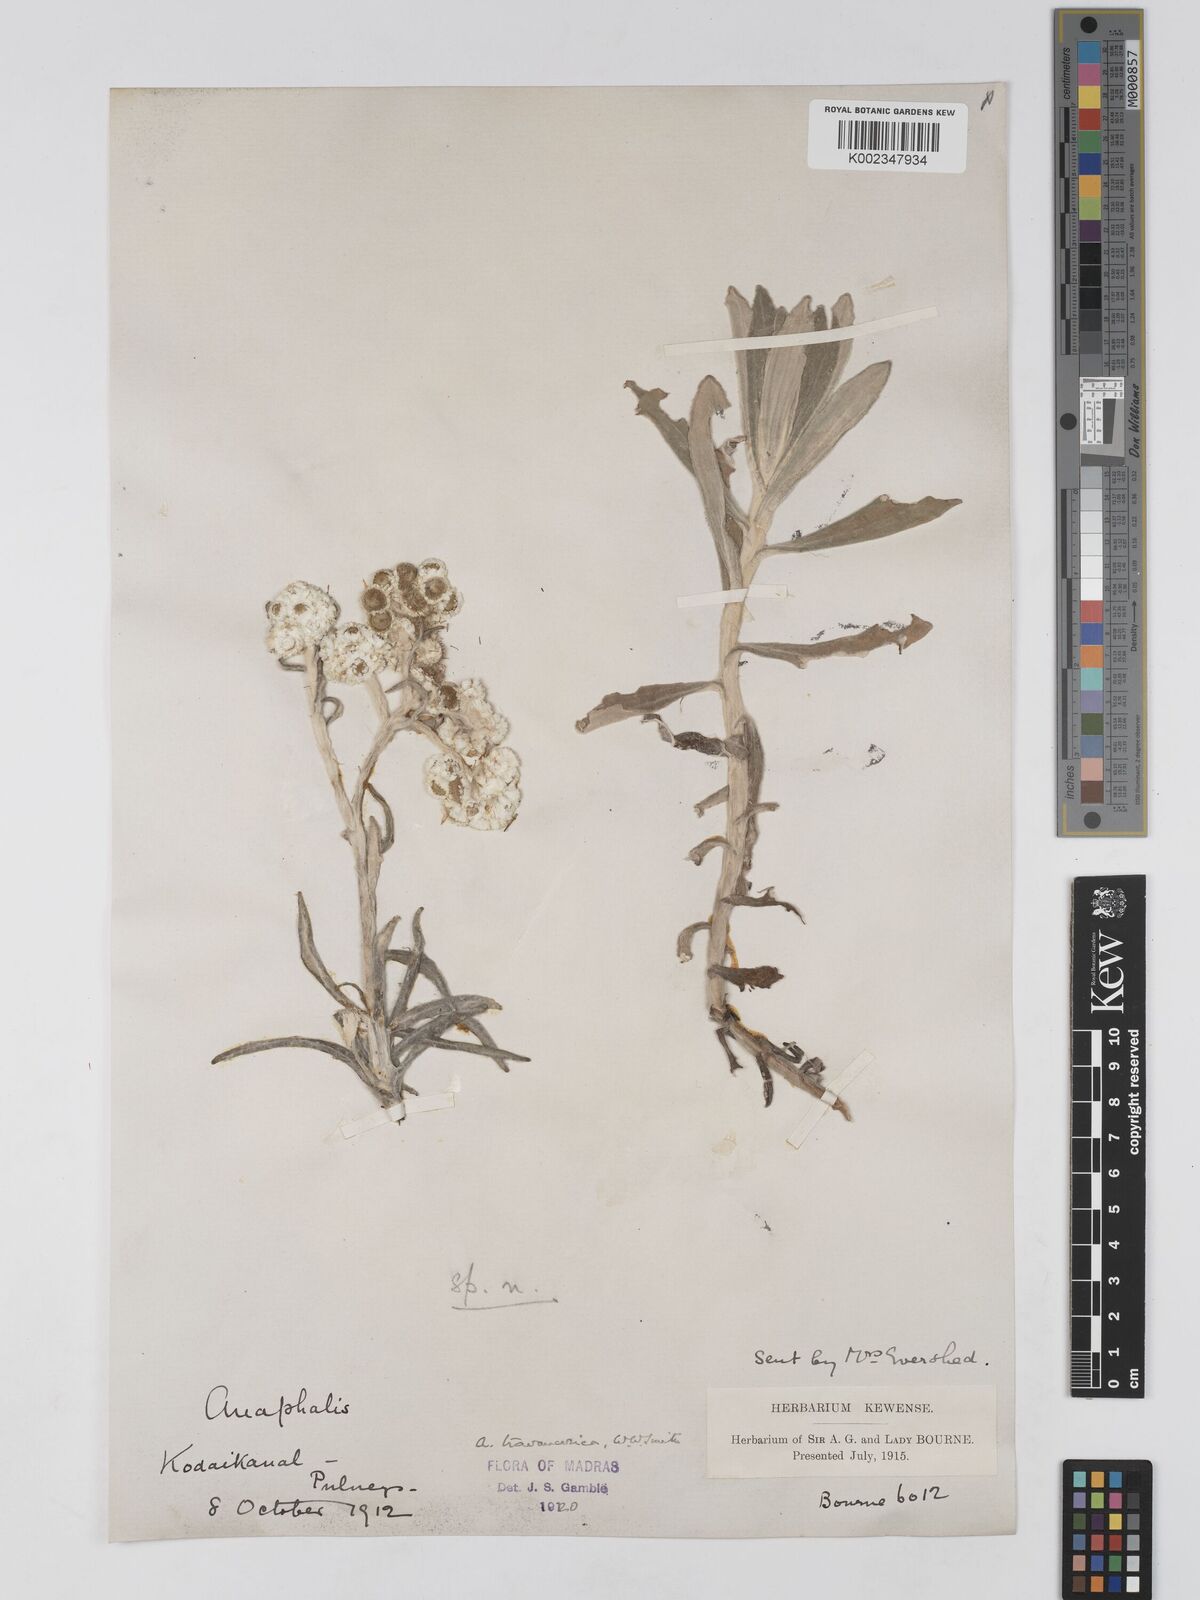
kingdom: Plantae
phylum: Tracheophyta
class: Magnoliopsida
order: Asterales
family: Asteraceae
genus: Anaphalis
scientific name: Anaphalis travancorica
